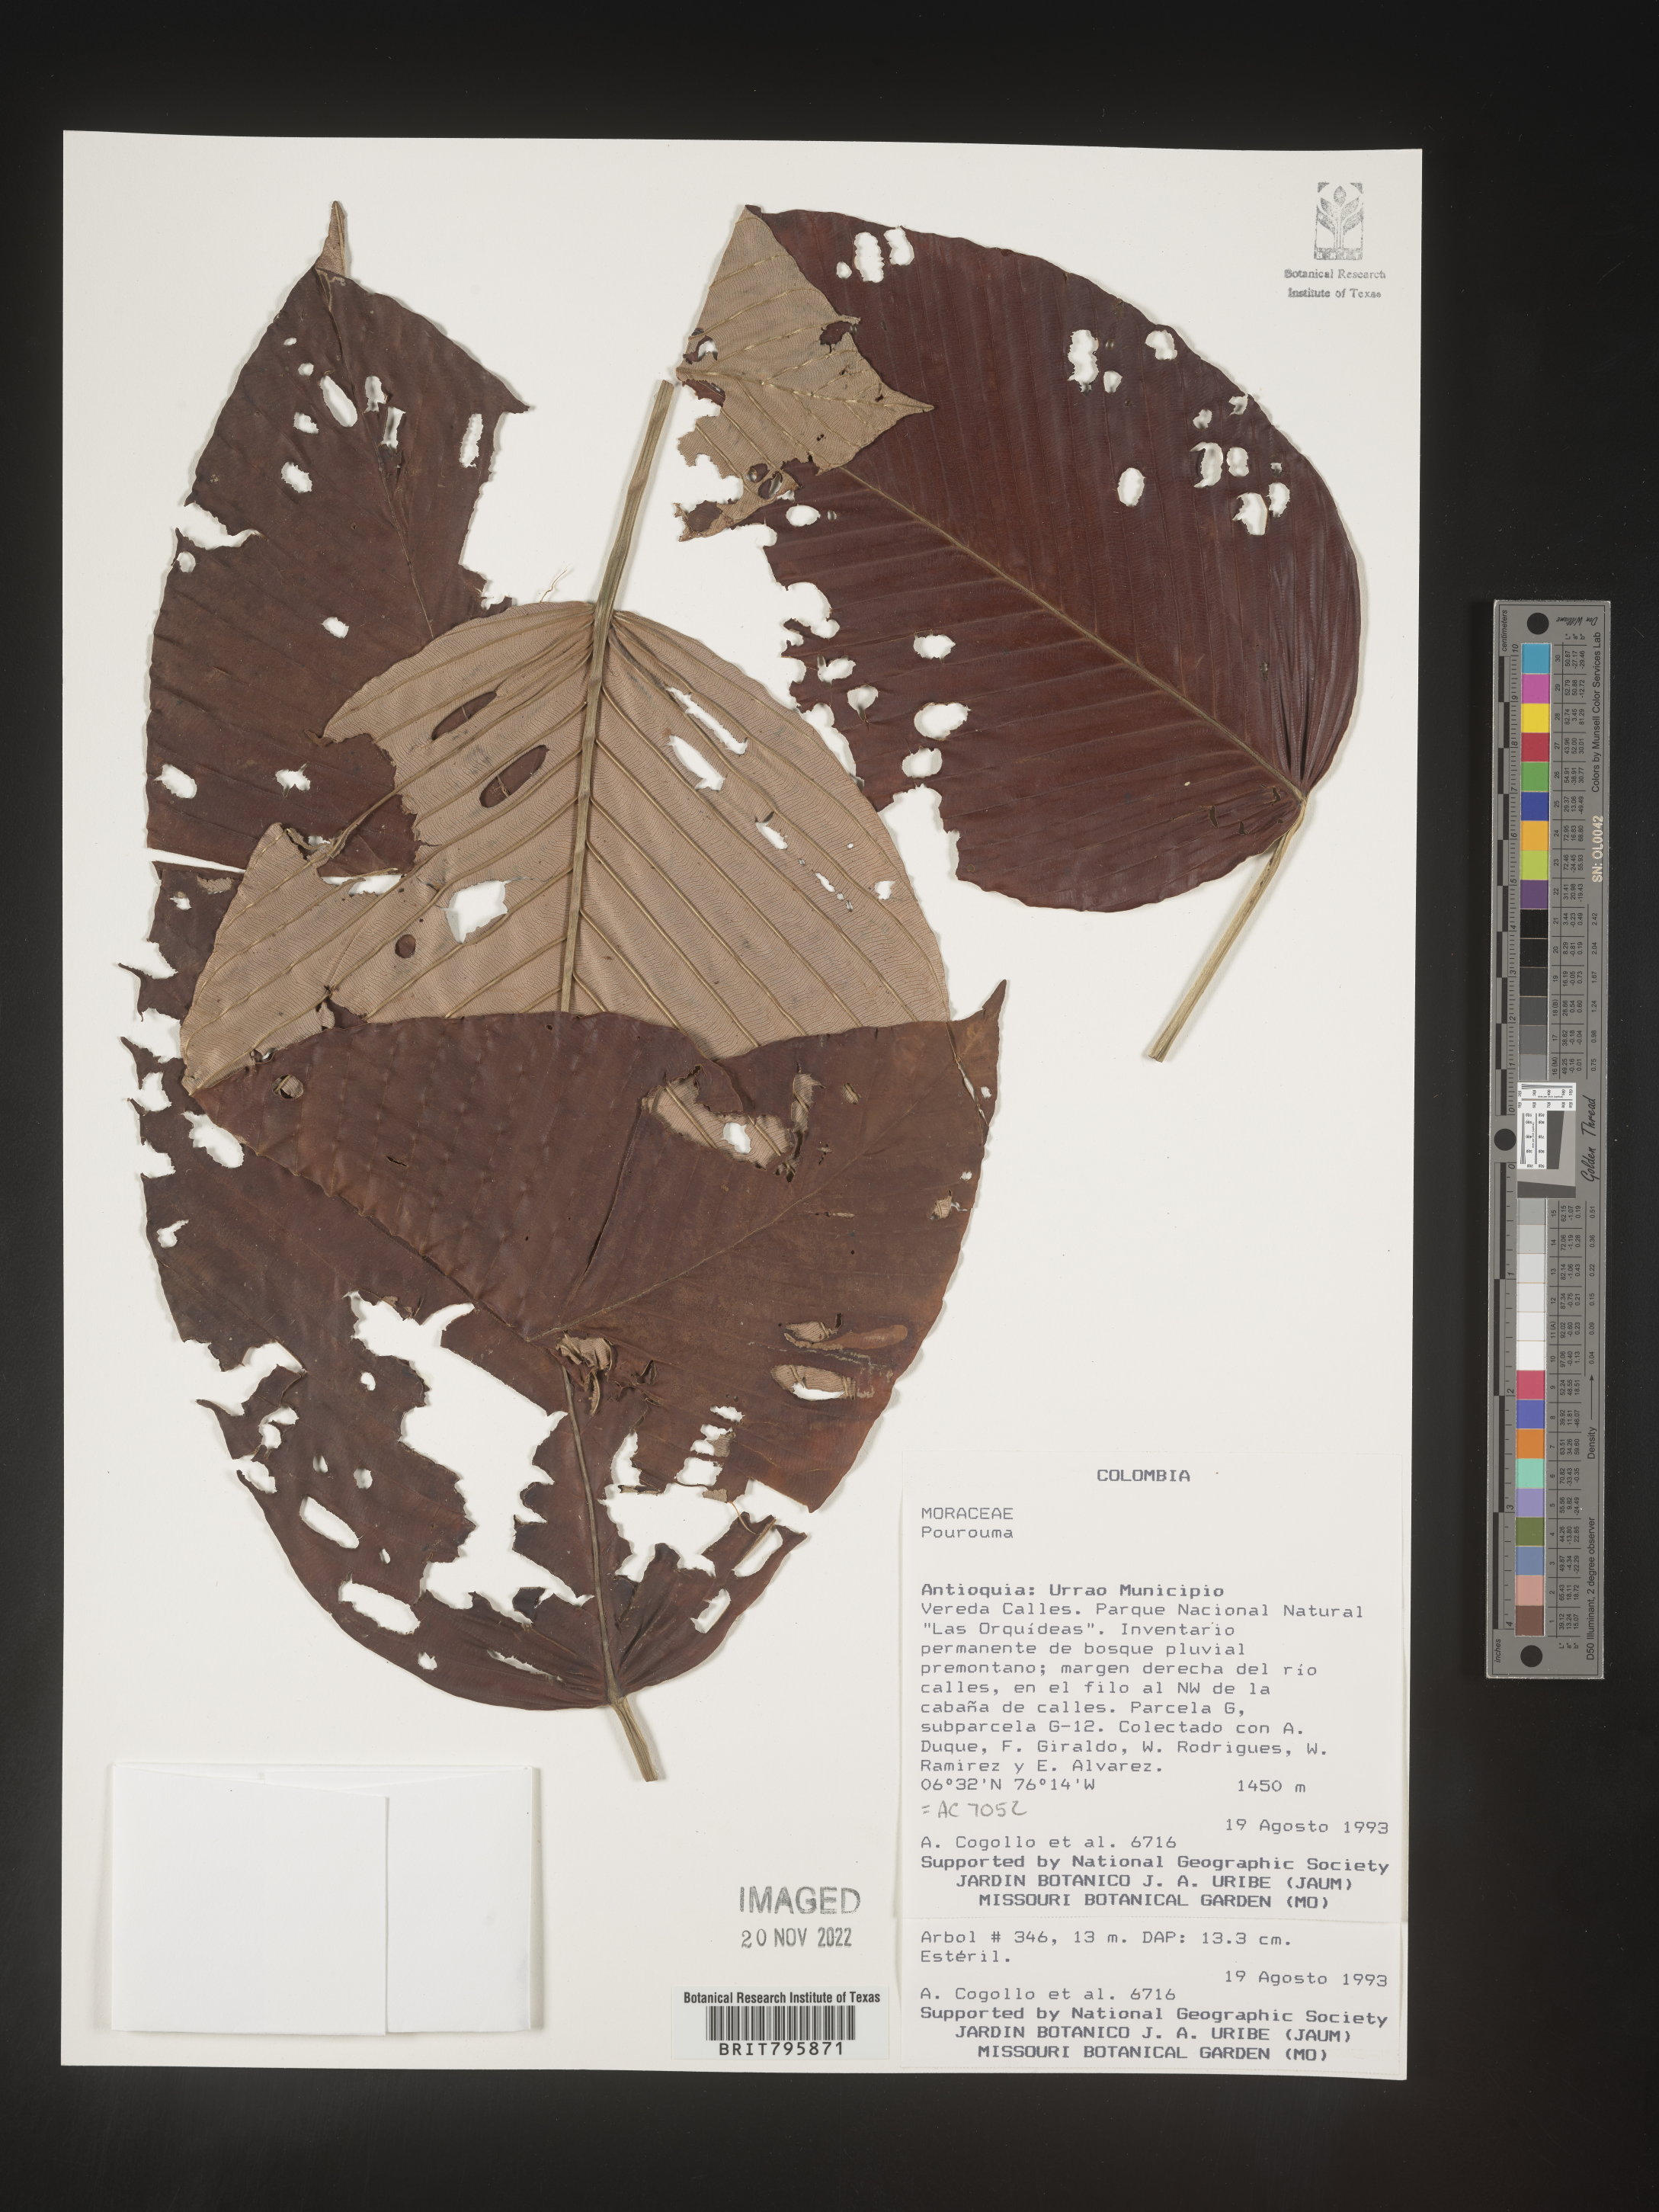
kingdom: Plantae
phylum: Tracheophyta
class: Magnoliopsida
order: Rosales
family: Urticaceae
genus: Pourouma
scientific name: Pourouma
